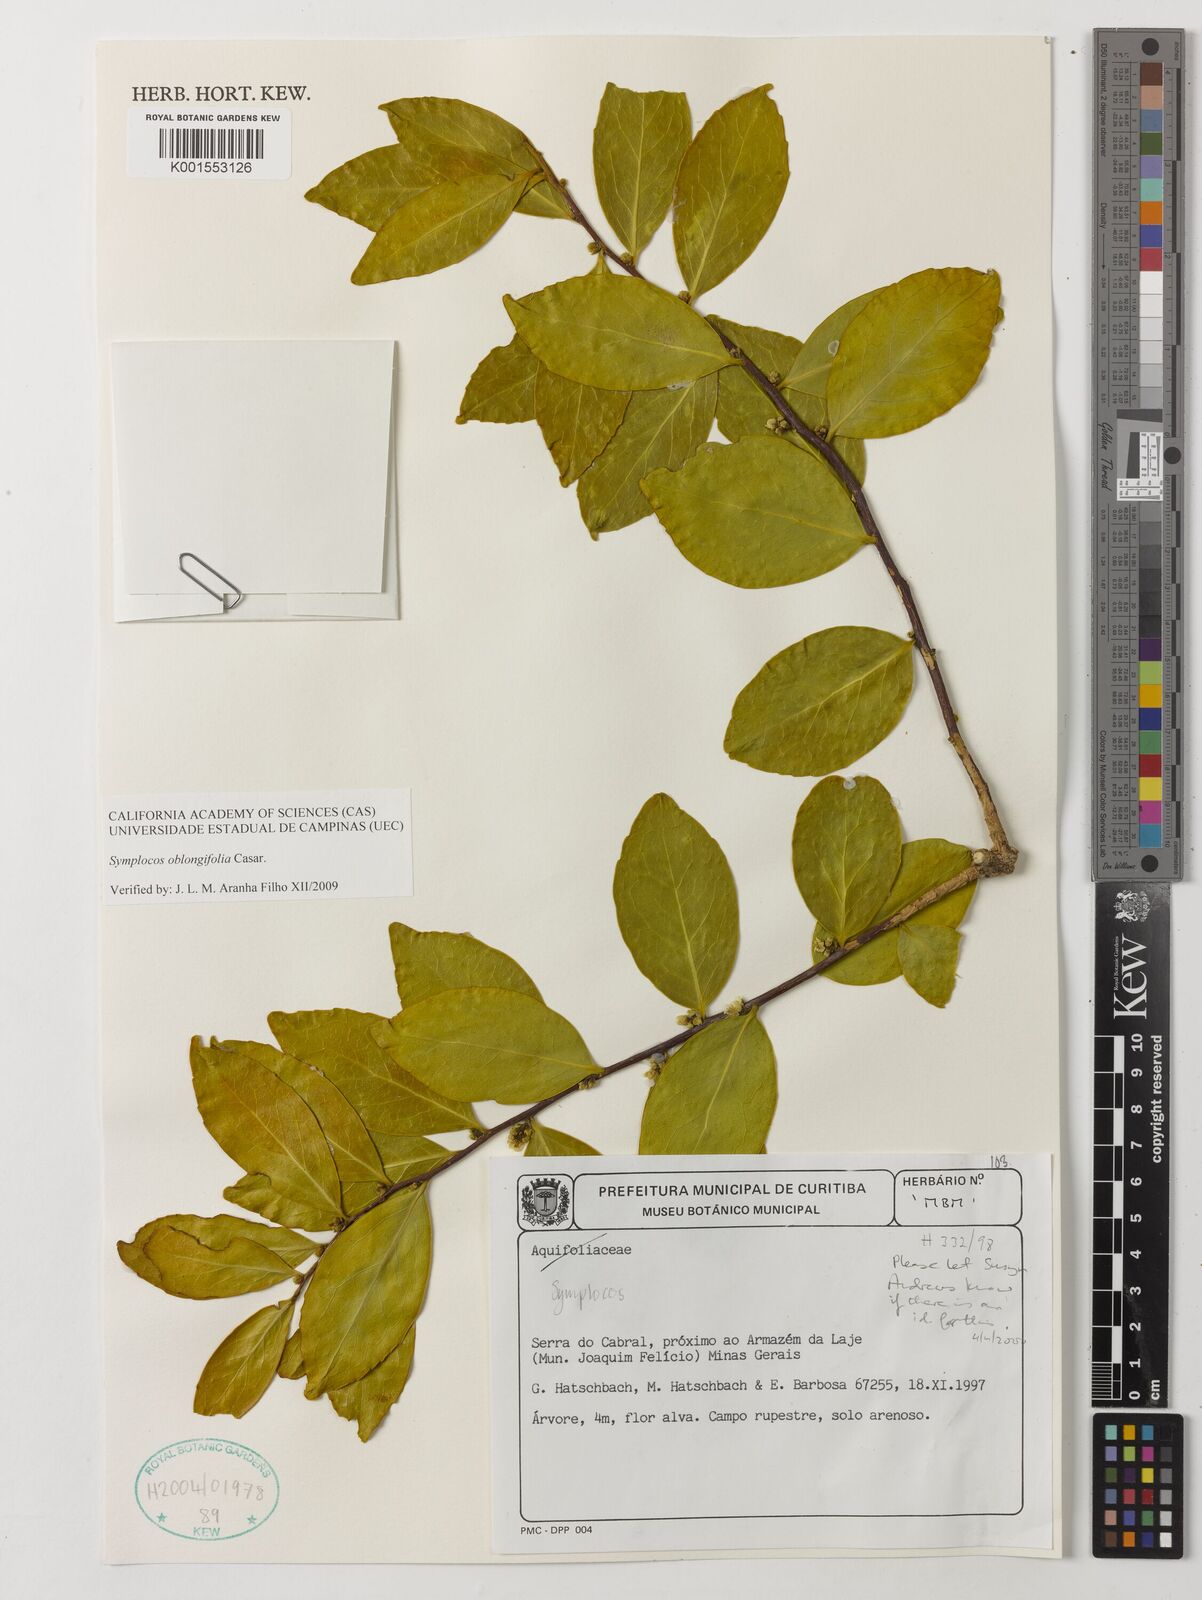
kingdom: Plantae
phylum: Tracheophyta
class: Magnoliopsida
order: Ericales
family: Symplocaceae
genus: Symplocos
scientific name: Symplocos oblongifolia
